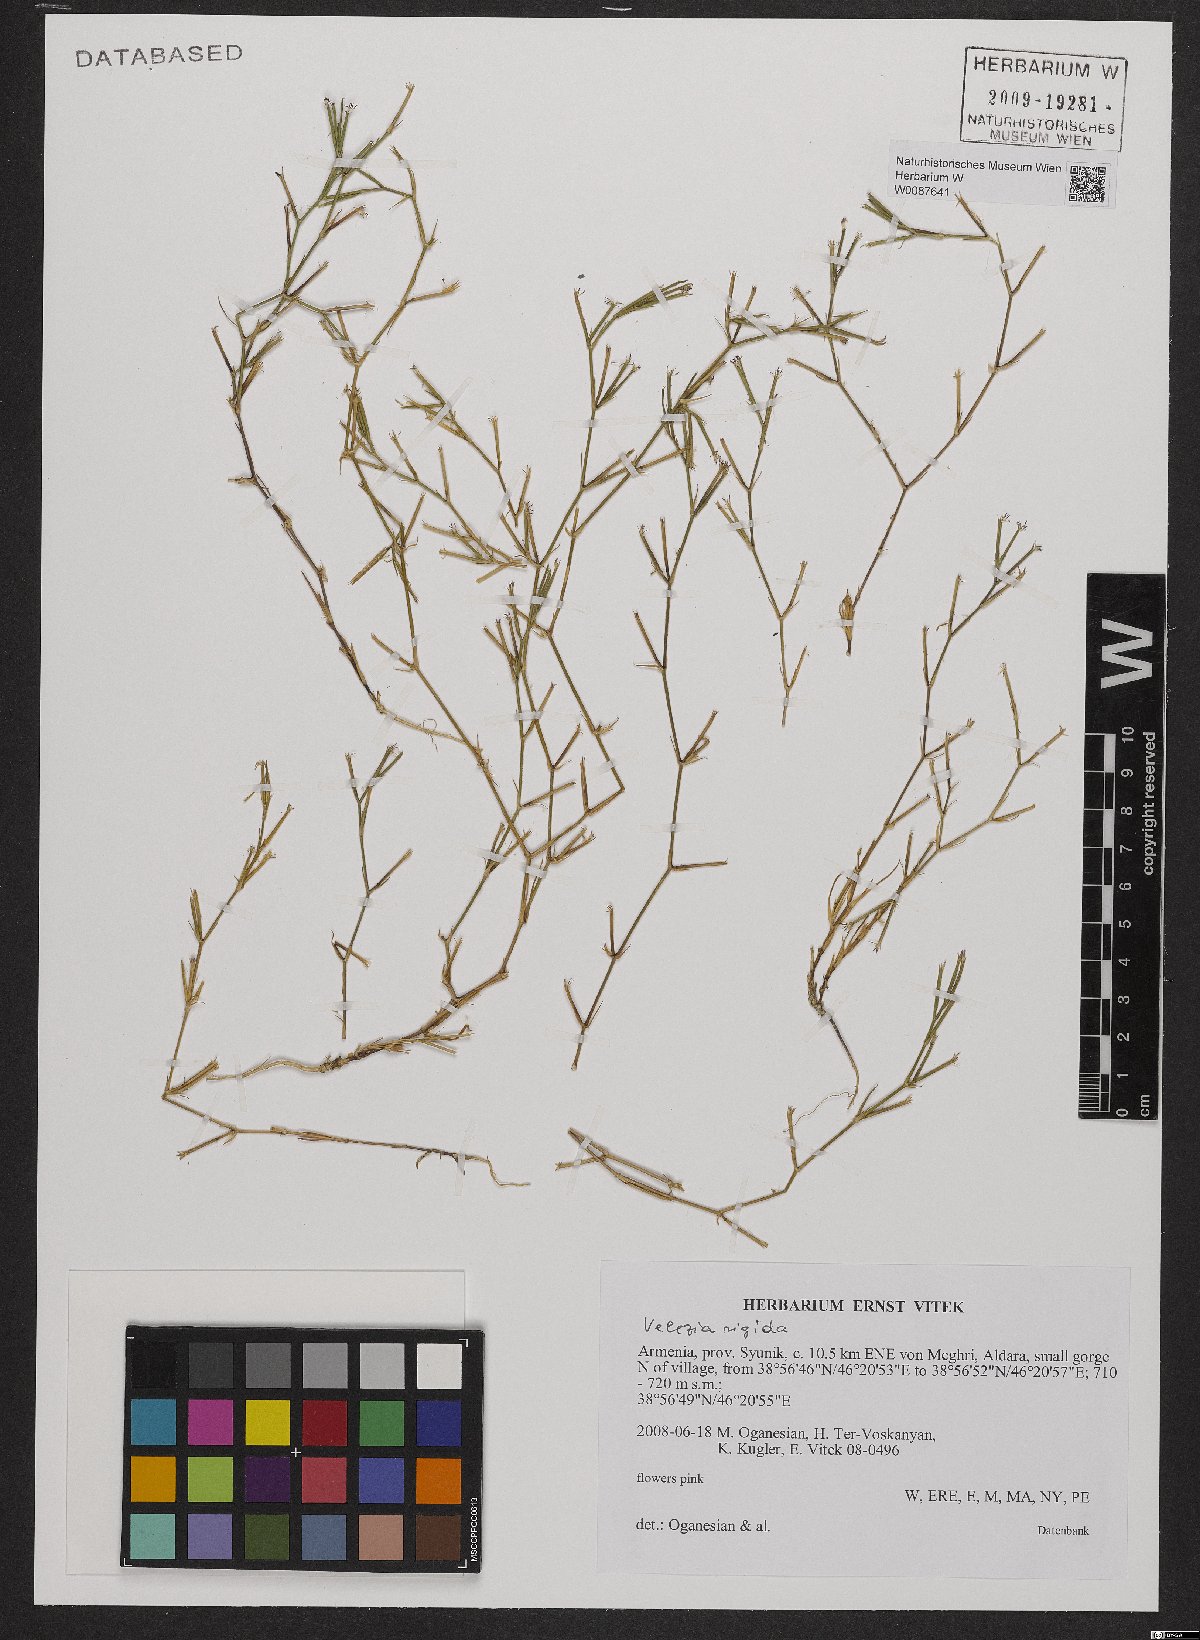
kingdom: Plantae
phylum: Tracheophyta
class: Magnoliopsida
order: Caryophyllales
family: Caryophyllaceae
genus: Dianthus
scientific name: Dianthus nudiflorus
